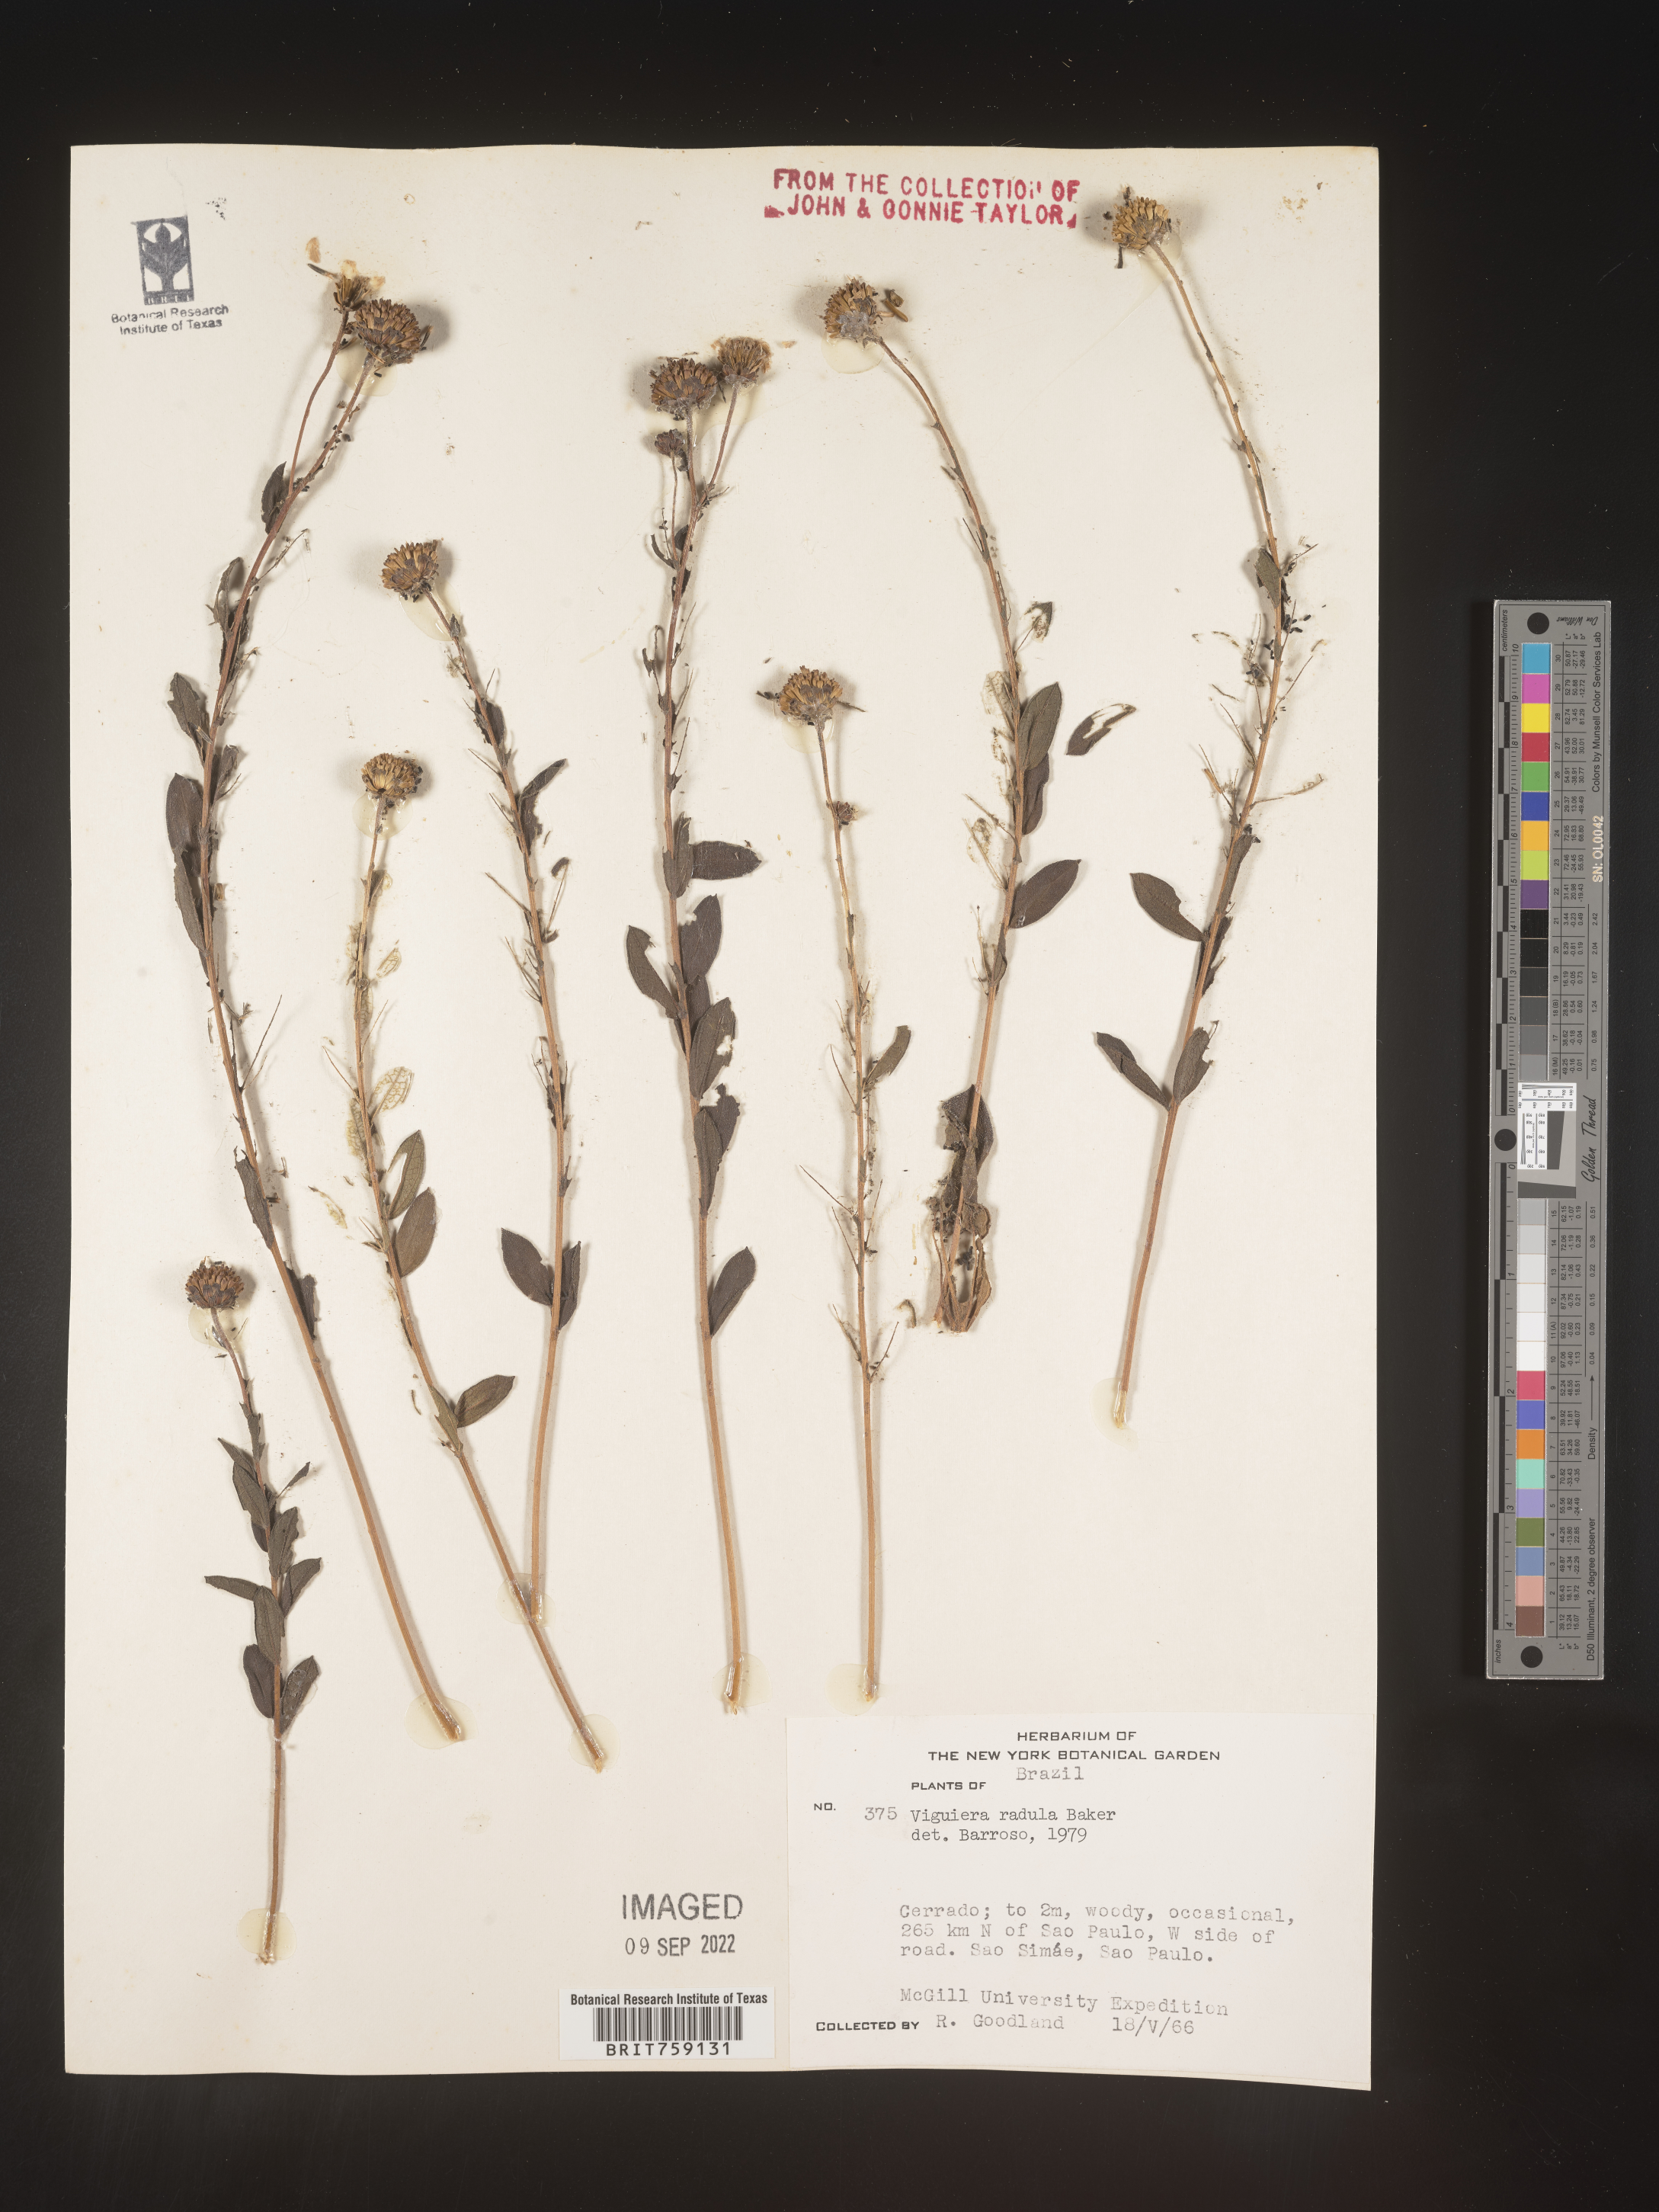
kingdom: Plantae
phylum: Tracheophyta
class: Magnoliopsida
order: Asterales
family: Asteraceae
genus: Viguiera
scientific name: Viguiera
